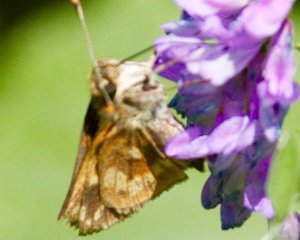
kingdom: Animalia
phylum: Arthropoda
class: Insecta
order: Lepidoptera
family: Hesperiidae
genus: Polites
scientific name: Polites coras
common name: Peck's Skipper
